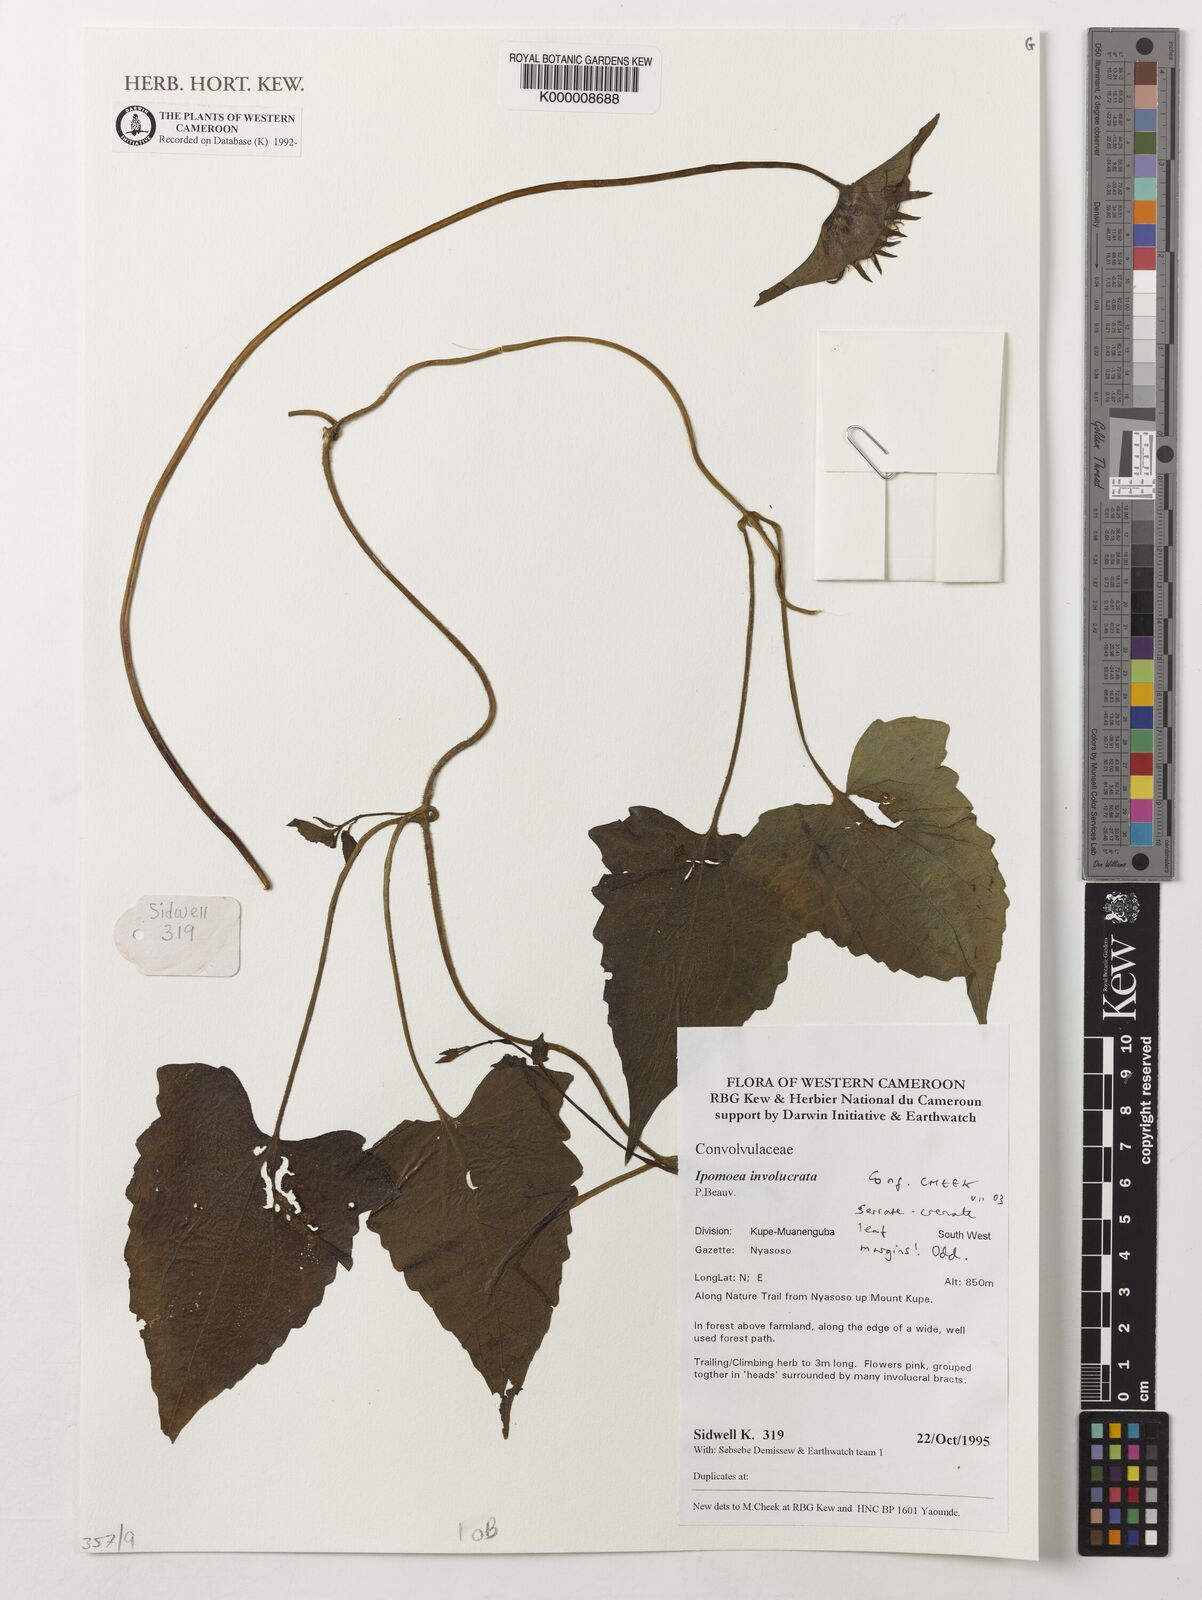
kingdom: Plantae
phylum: Tracheophyta
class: Magnoliopsida
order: Solanales
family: Convolvulaceae
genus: Ipomoea
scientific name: Ipomoea involucrata
